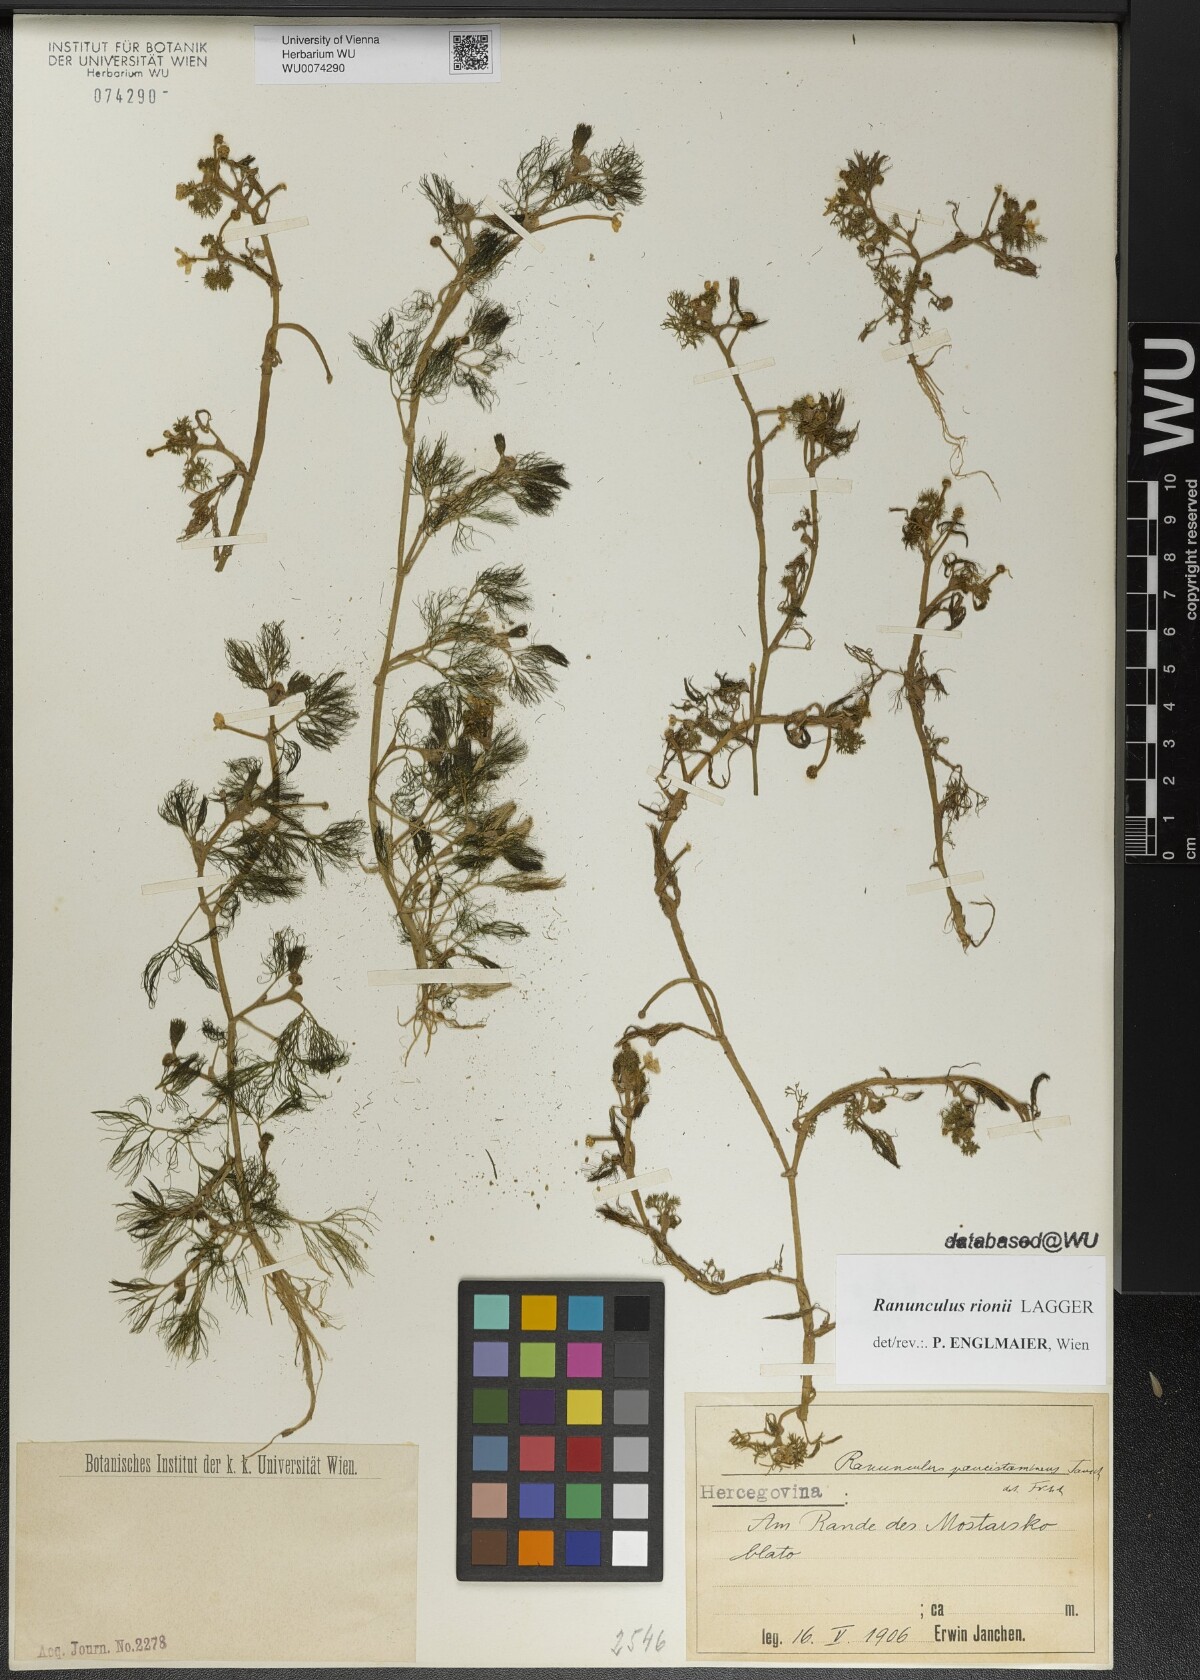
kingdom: Plantae
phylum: Tracheophyta
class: Magnoliopsida
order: Ranunculales
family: Ranunculaceae
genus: Ranunculus
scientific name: Ranunculus rionii
